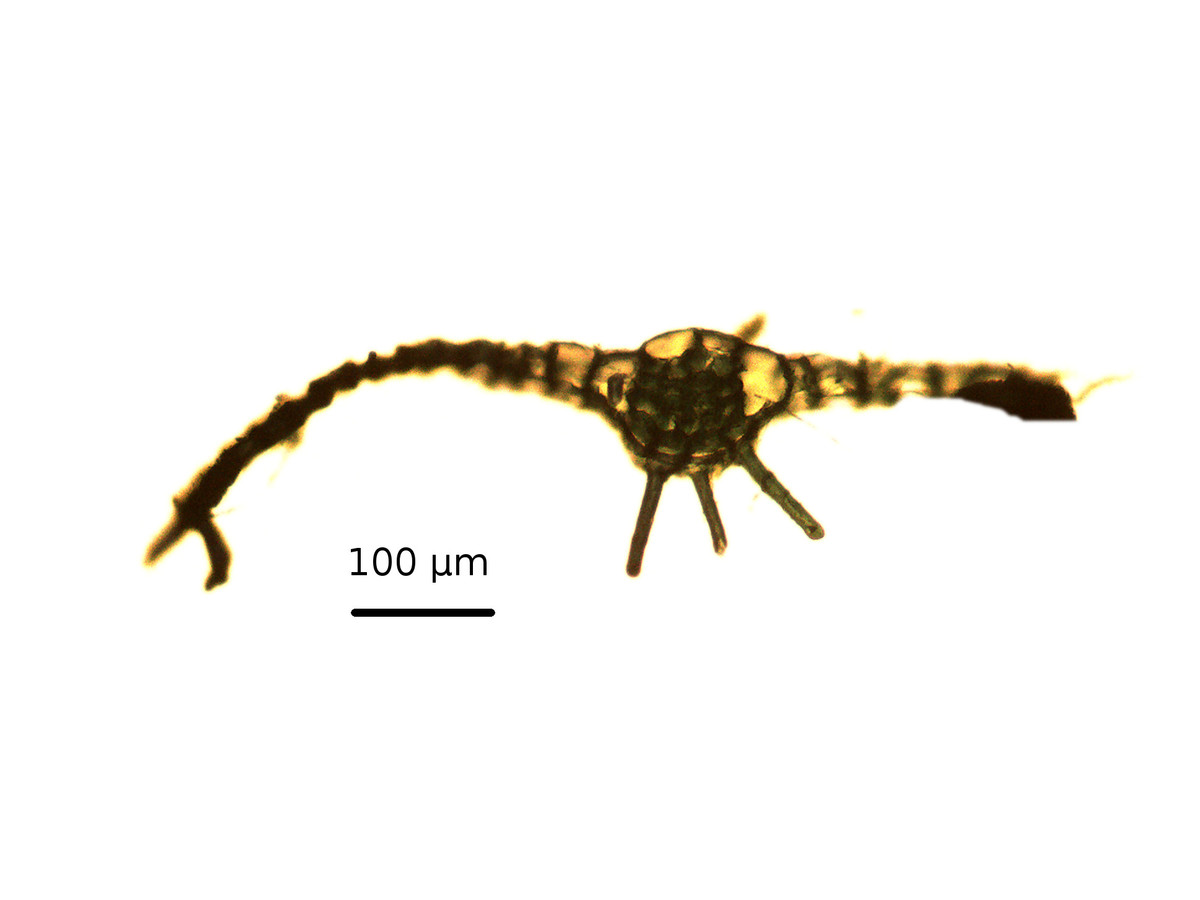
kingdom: Plantae
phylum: Marchantiophyta
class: Jungermanniopsida
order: Metzgeriales
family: Metzgeriaceae
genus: Metzgeria
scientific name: Metzgeria madagassa
